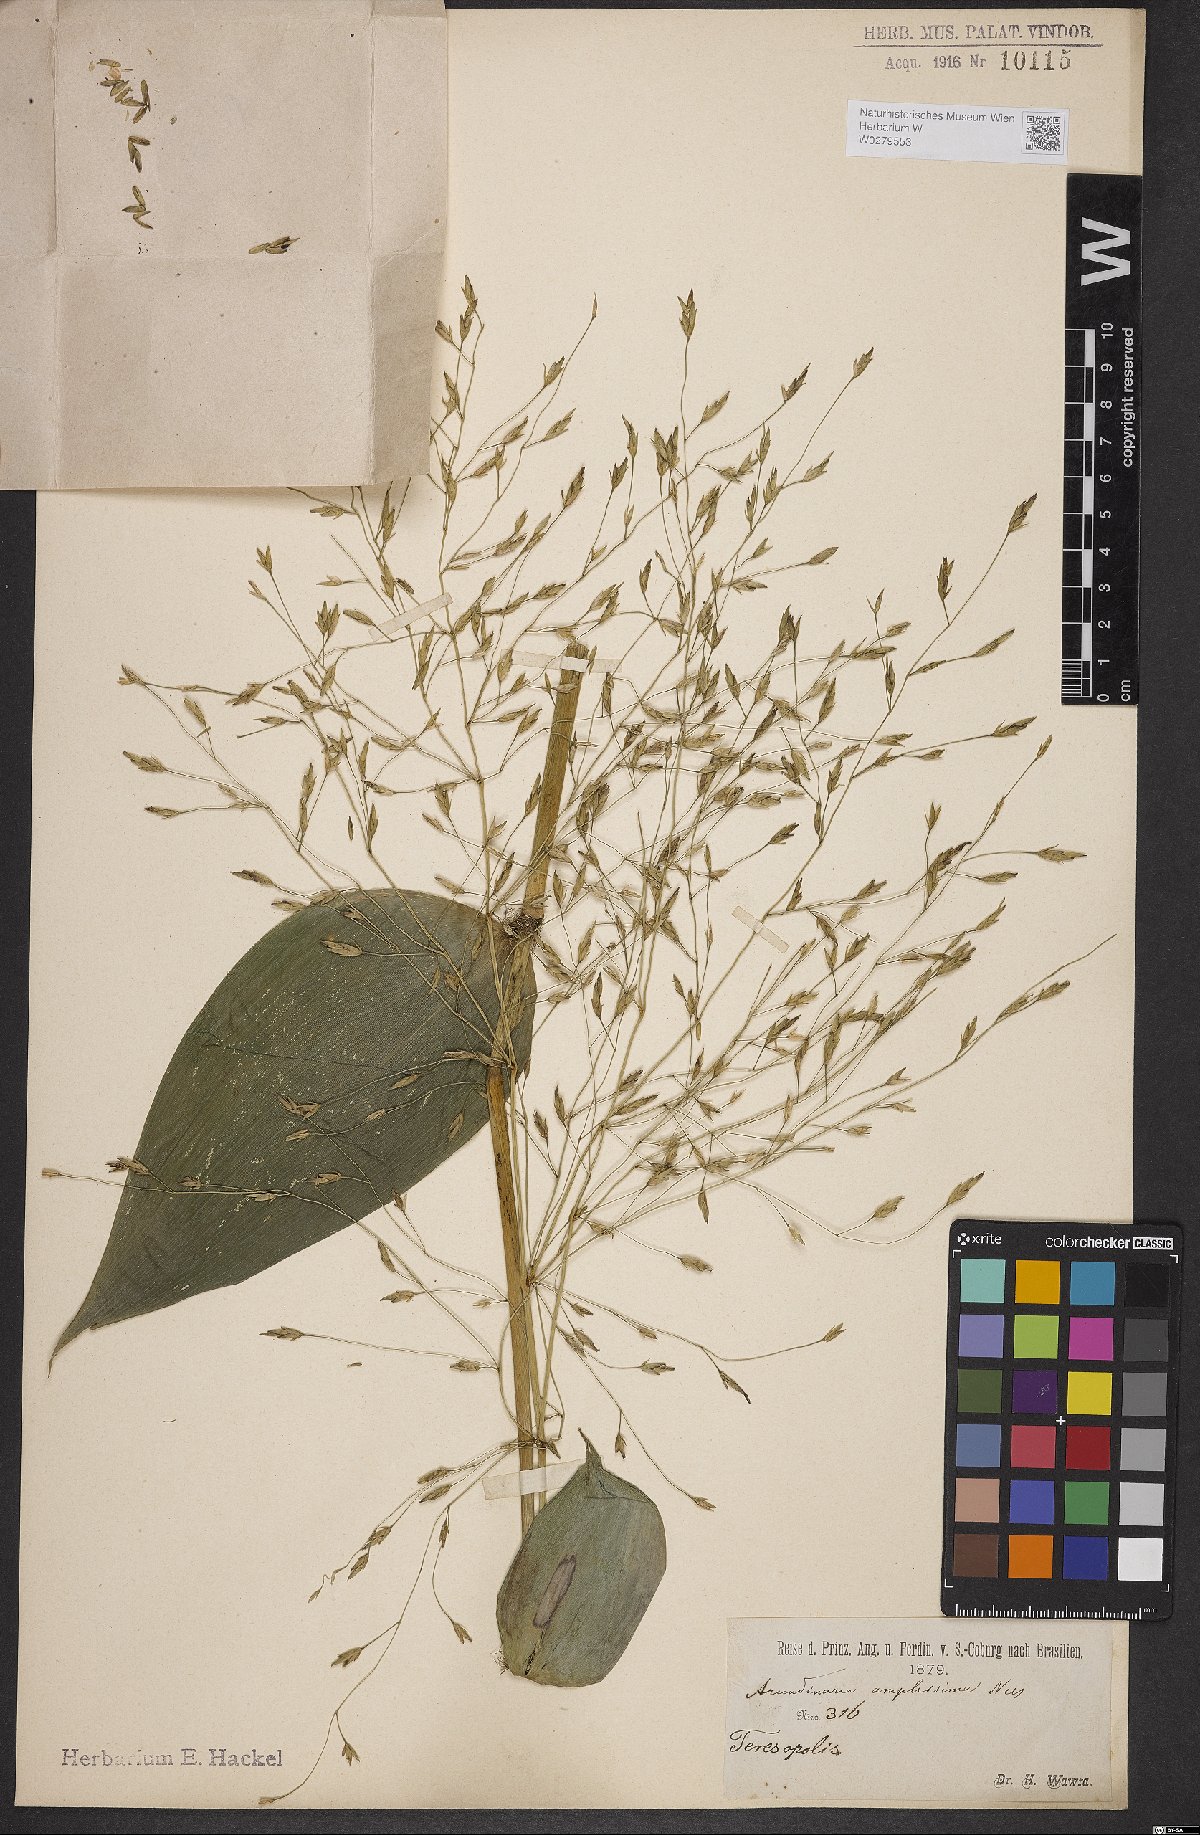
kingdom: Plantae
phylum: Tracheophyta
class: Liliopsida
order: Poales
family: Poaceae
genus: Aulonemia
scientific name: Aulonemia amplissima
